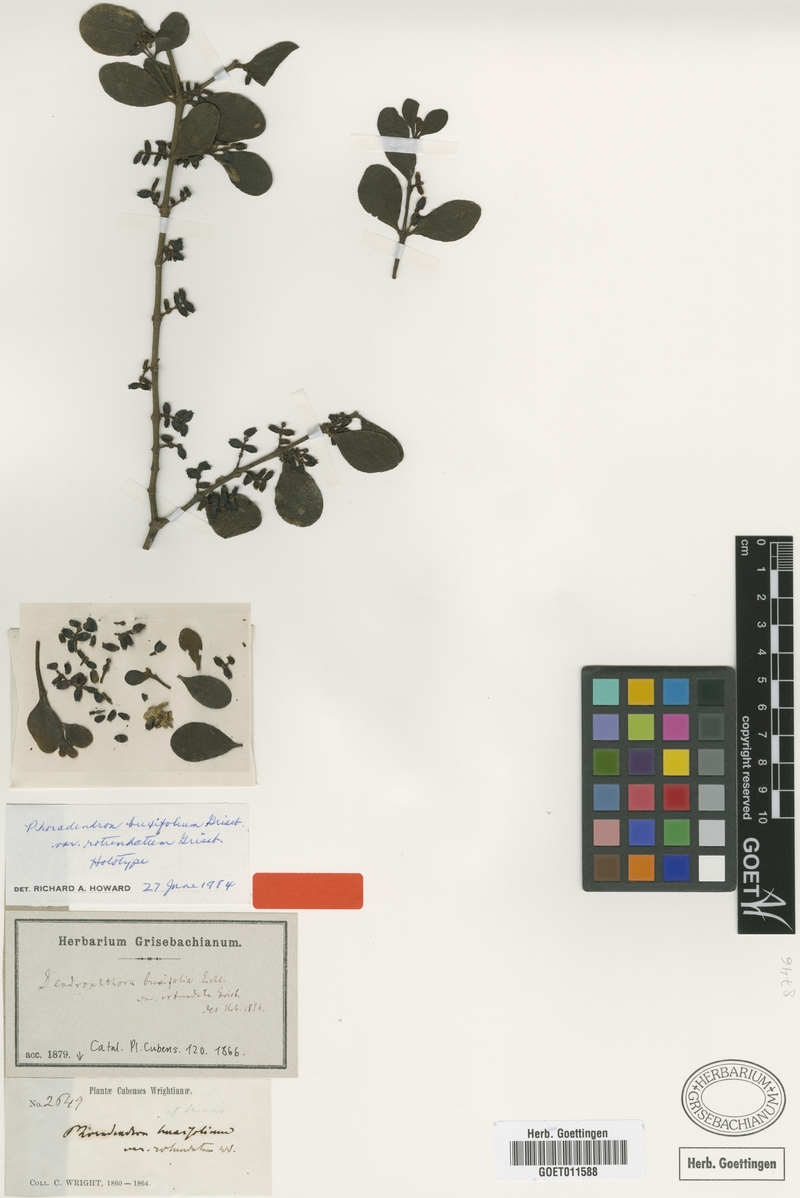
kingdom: Plantae
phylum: Tracheophyta
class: Magnoliopsida
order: Santalales
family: Viscaceae
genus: Dendrophthora
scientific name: Dendrophthora buxifolia
